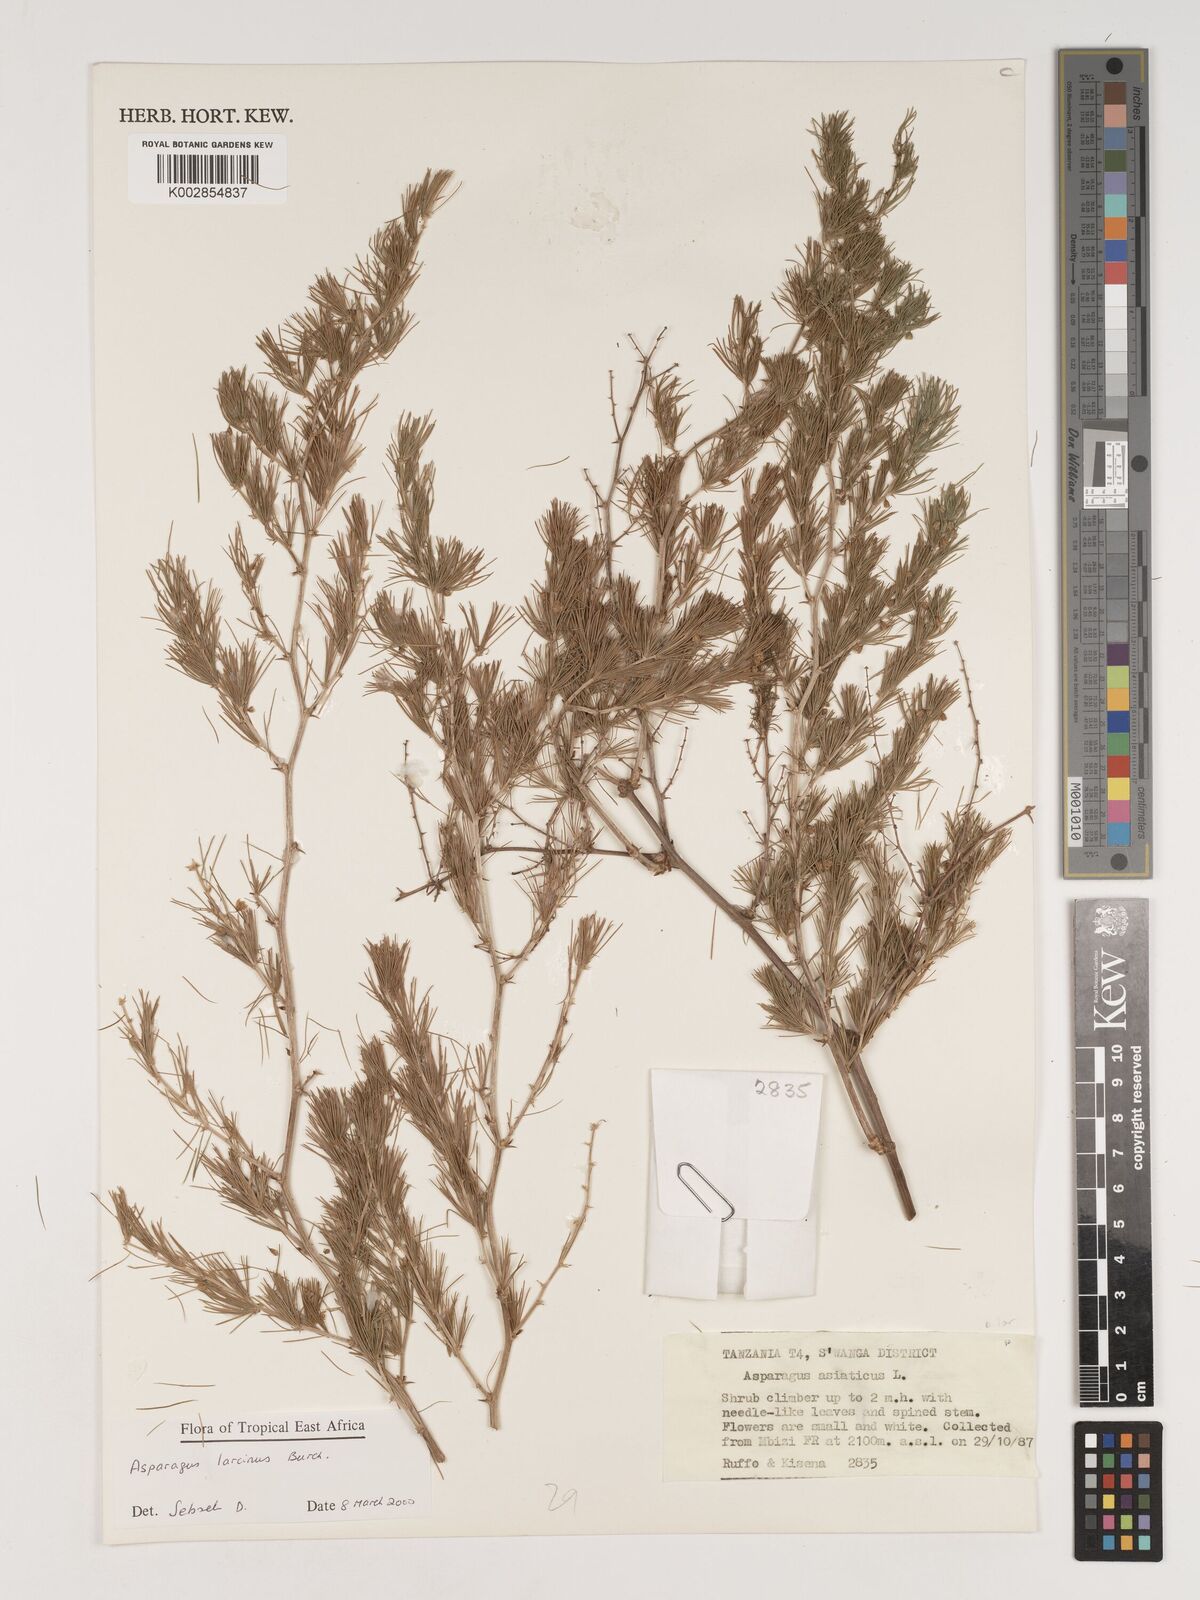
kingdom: Plantae
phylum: Tracheophyta
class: Liliopsida
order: Asparagales
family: Asparagaceae
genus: Asparagus
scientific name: Asparagus laricinus
